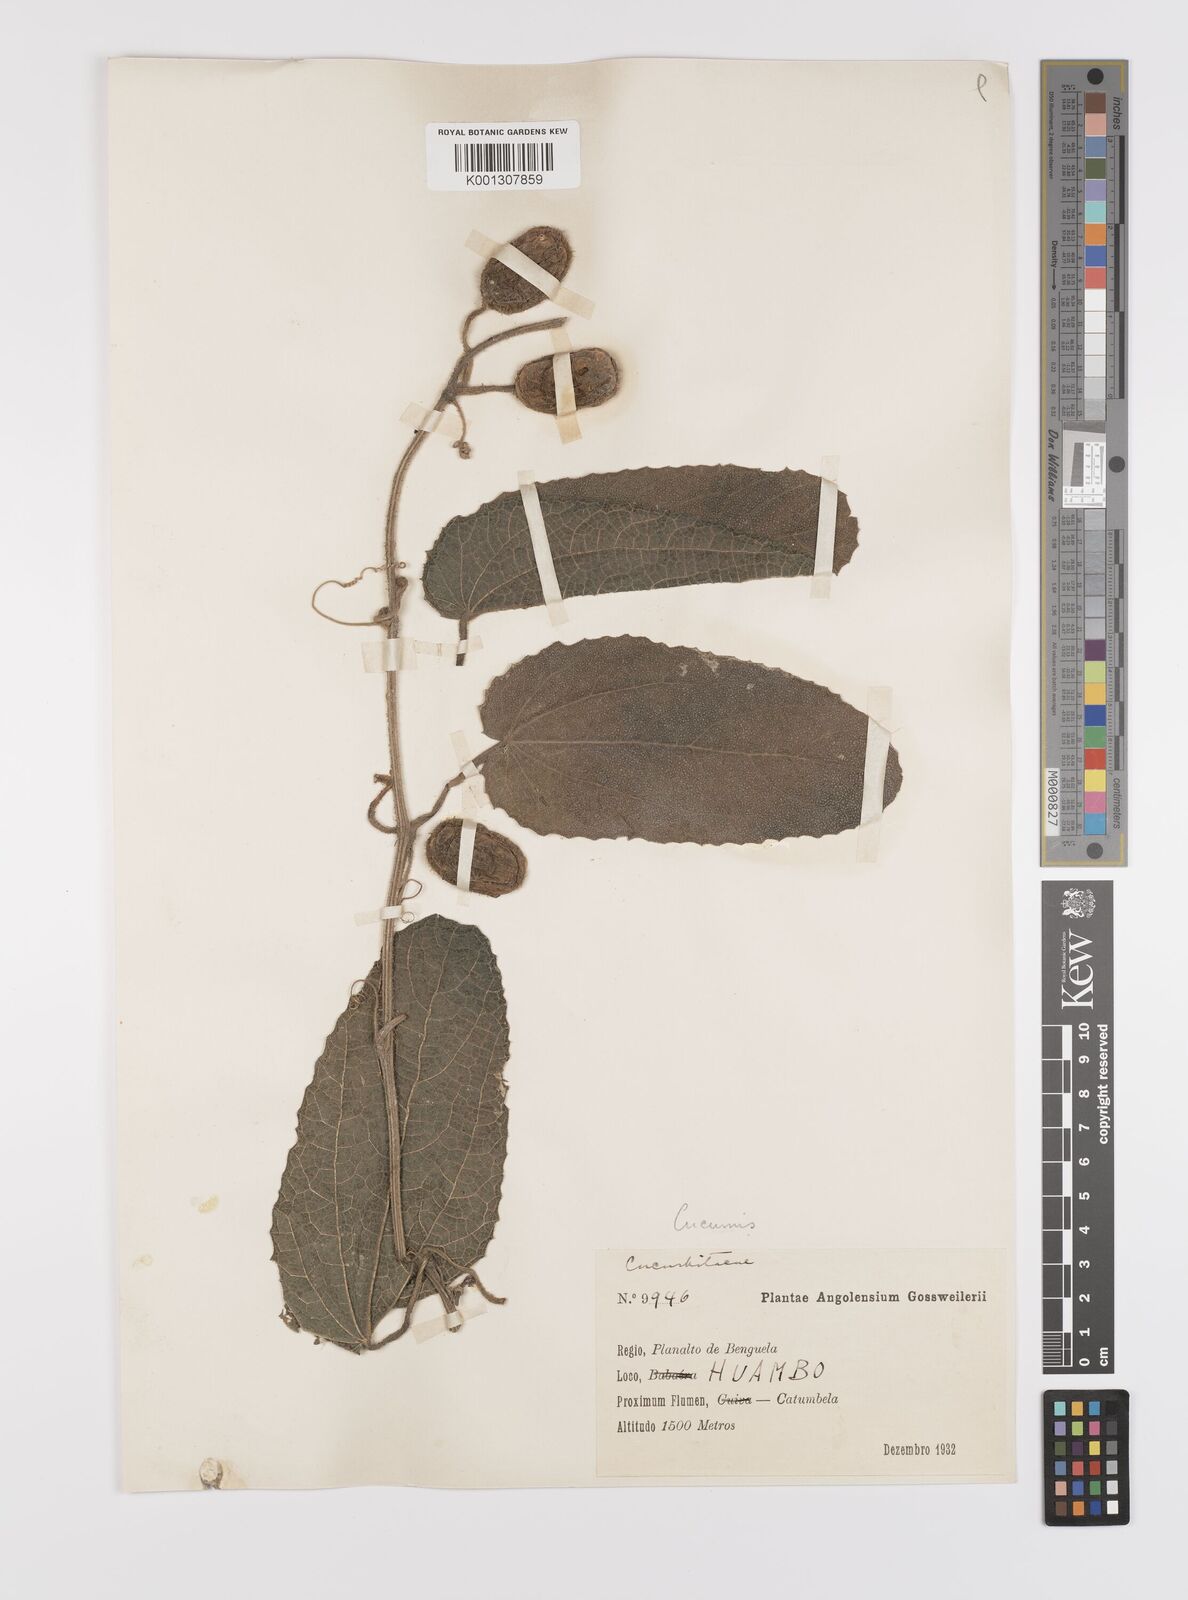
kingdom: Plantae
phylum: Tracheophyta
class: Magnoliopsida
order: Cucurbitales
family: Cucurbitaceae
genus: Cucumis
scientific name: Cucumis hirsutus
